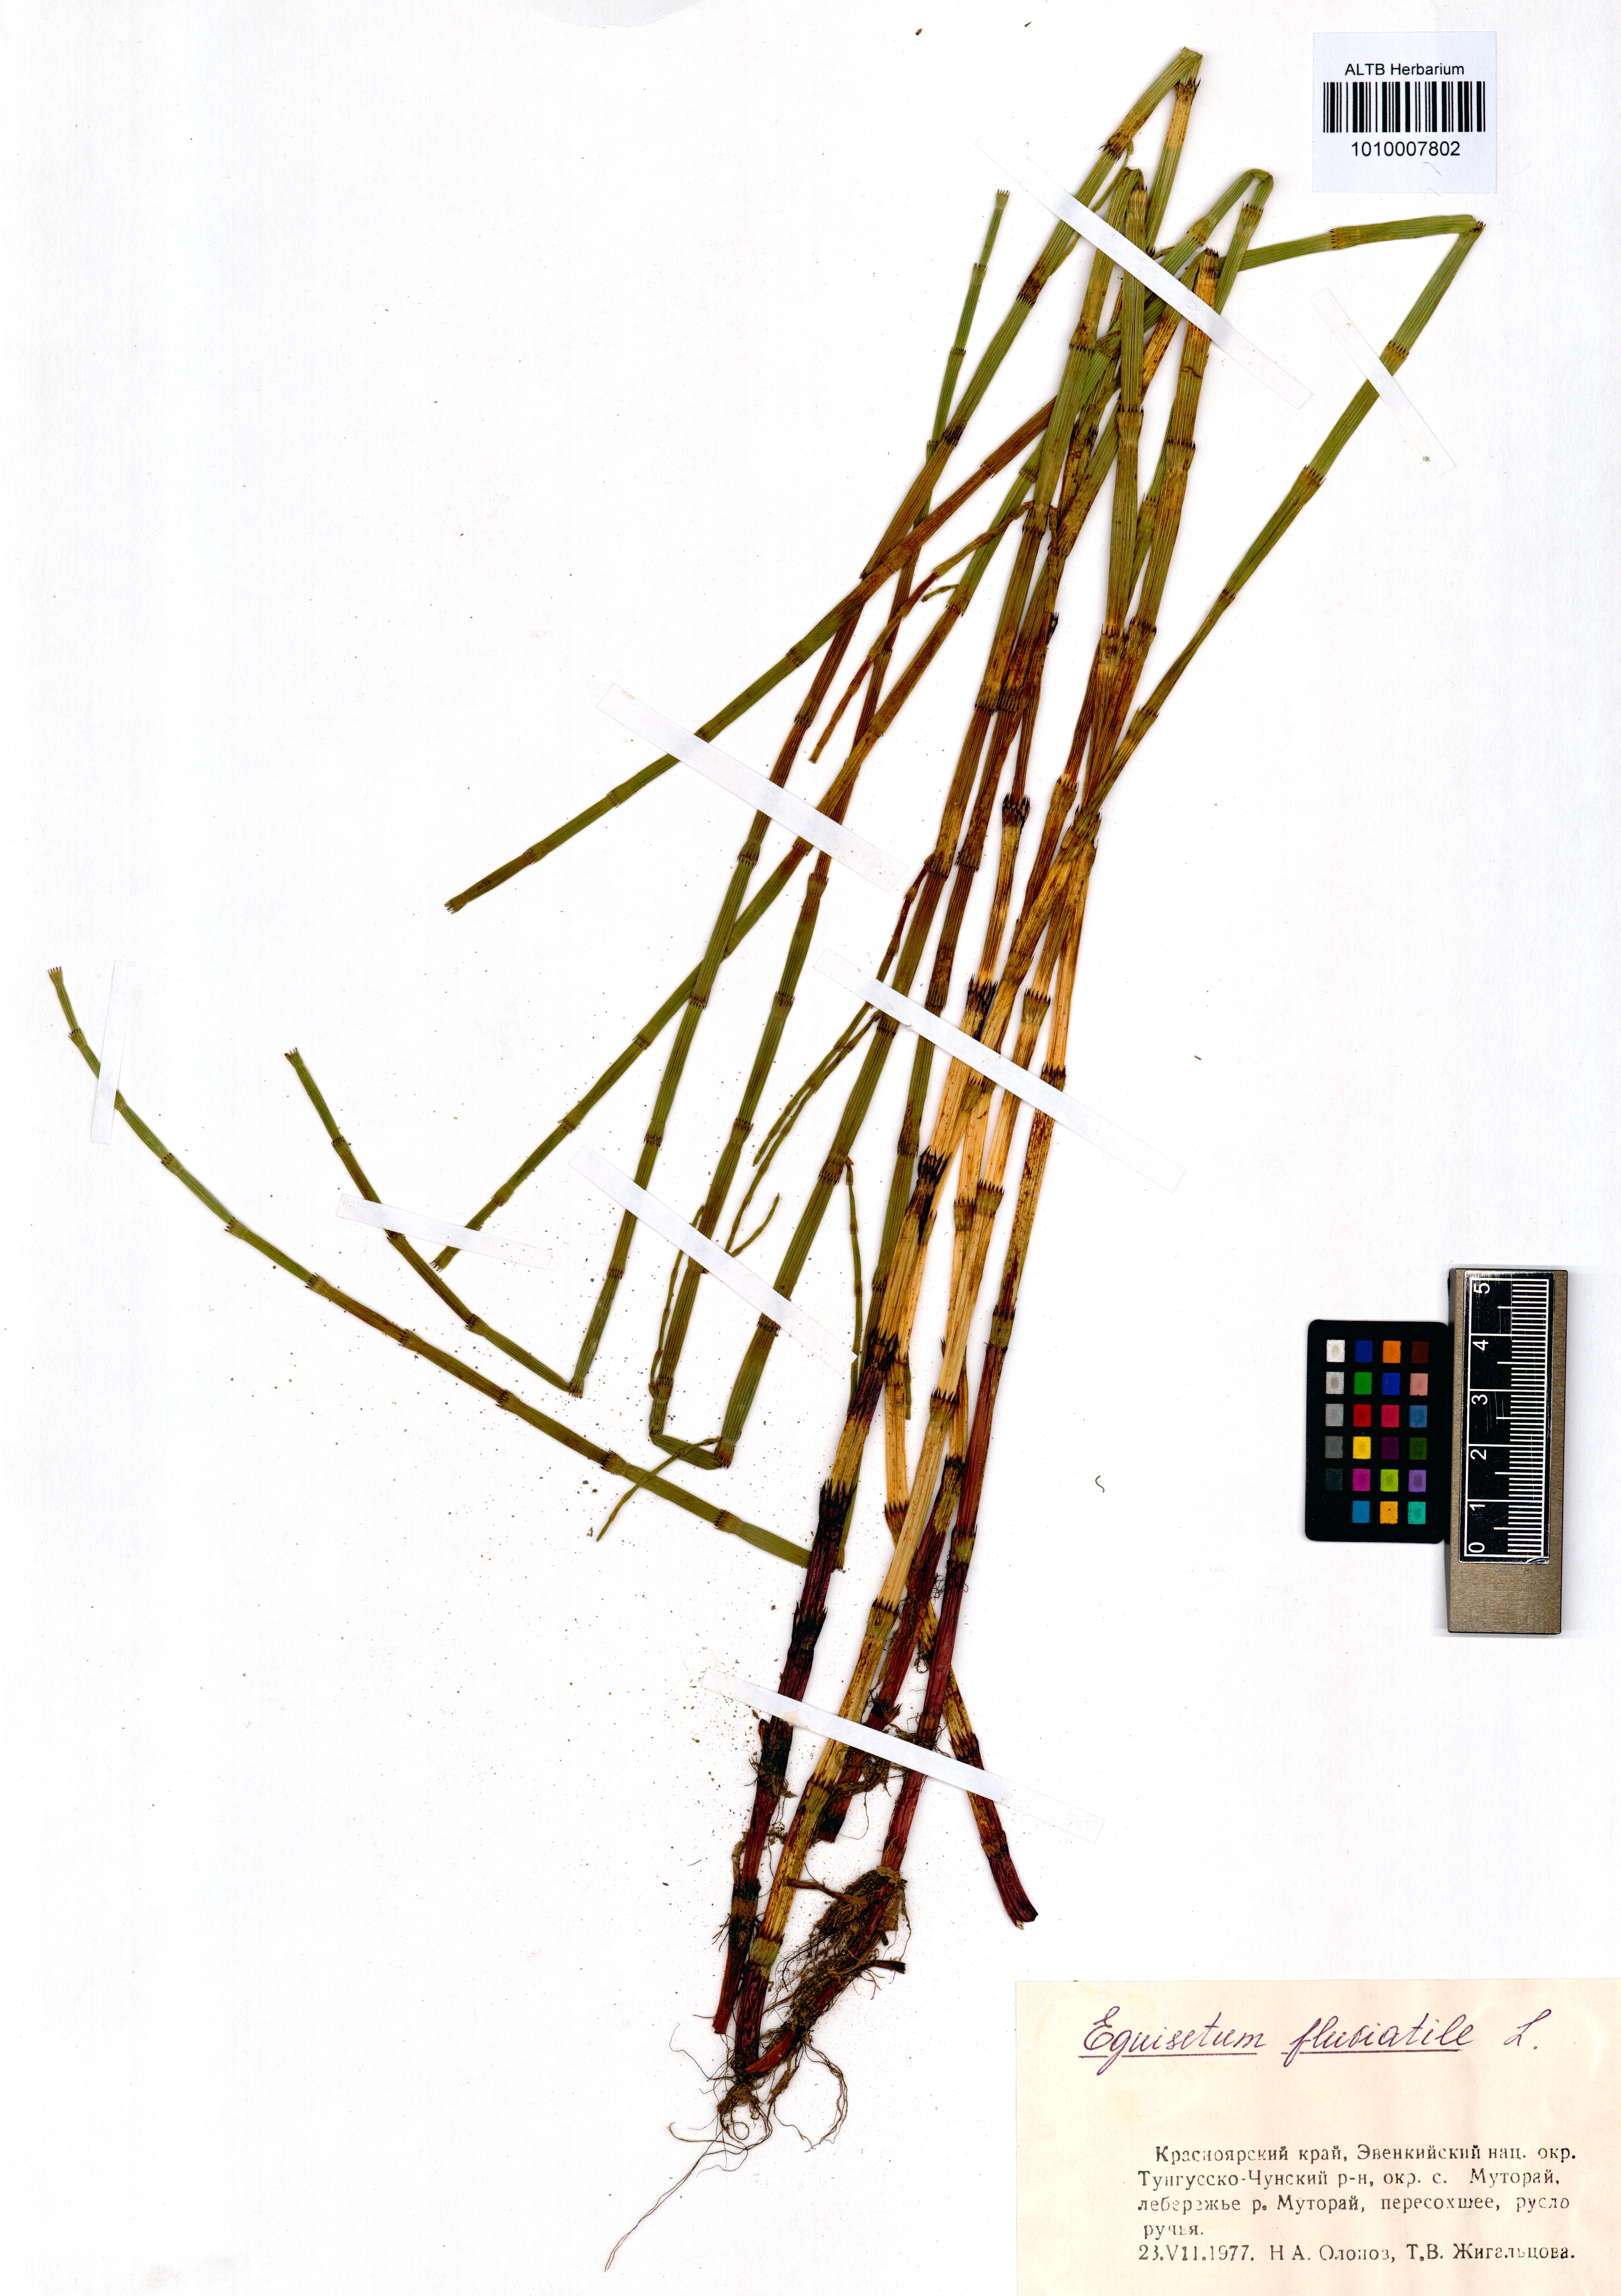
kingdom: Plantae
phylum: Tracheophyta
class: Polypodiopsida
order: Equisetales
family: Equisetaceae
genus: Equisetum
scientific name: Equisetum fluviatile
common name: Water horsetail
